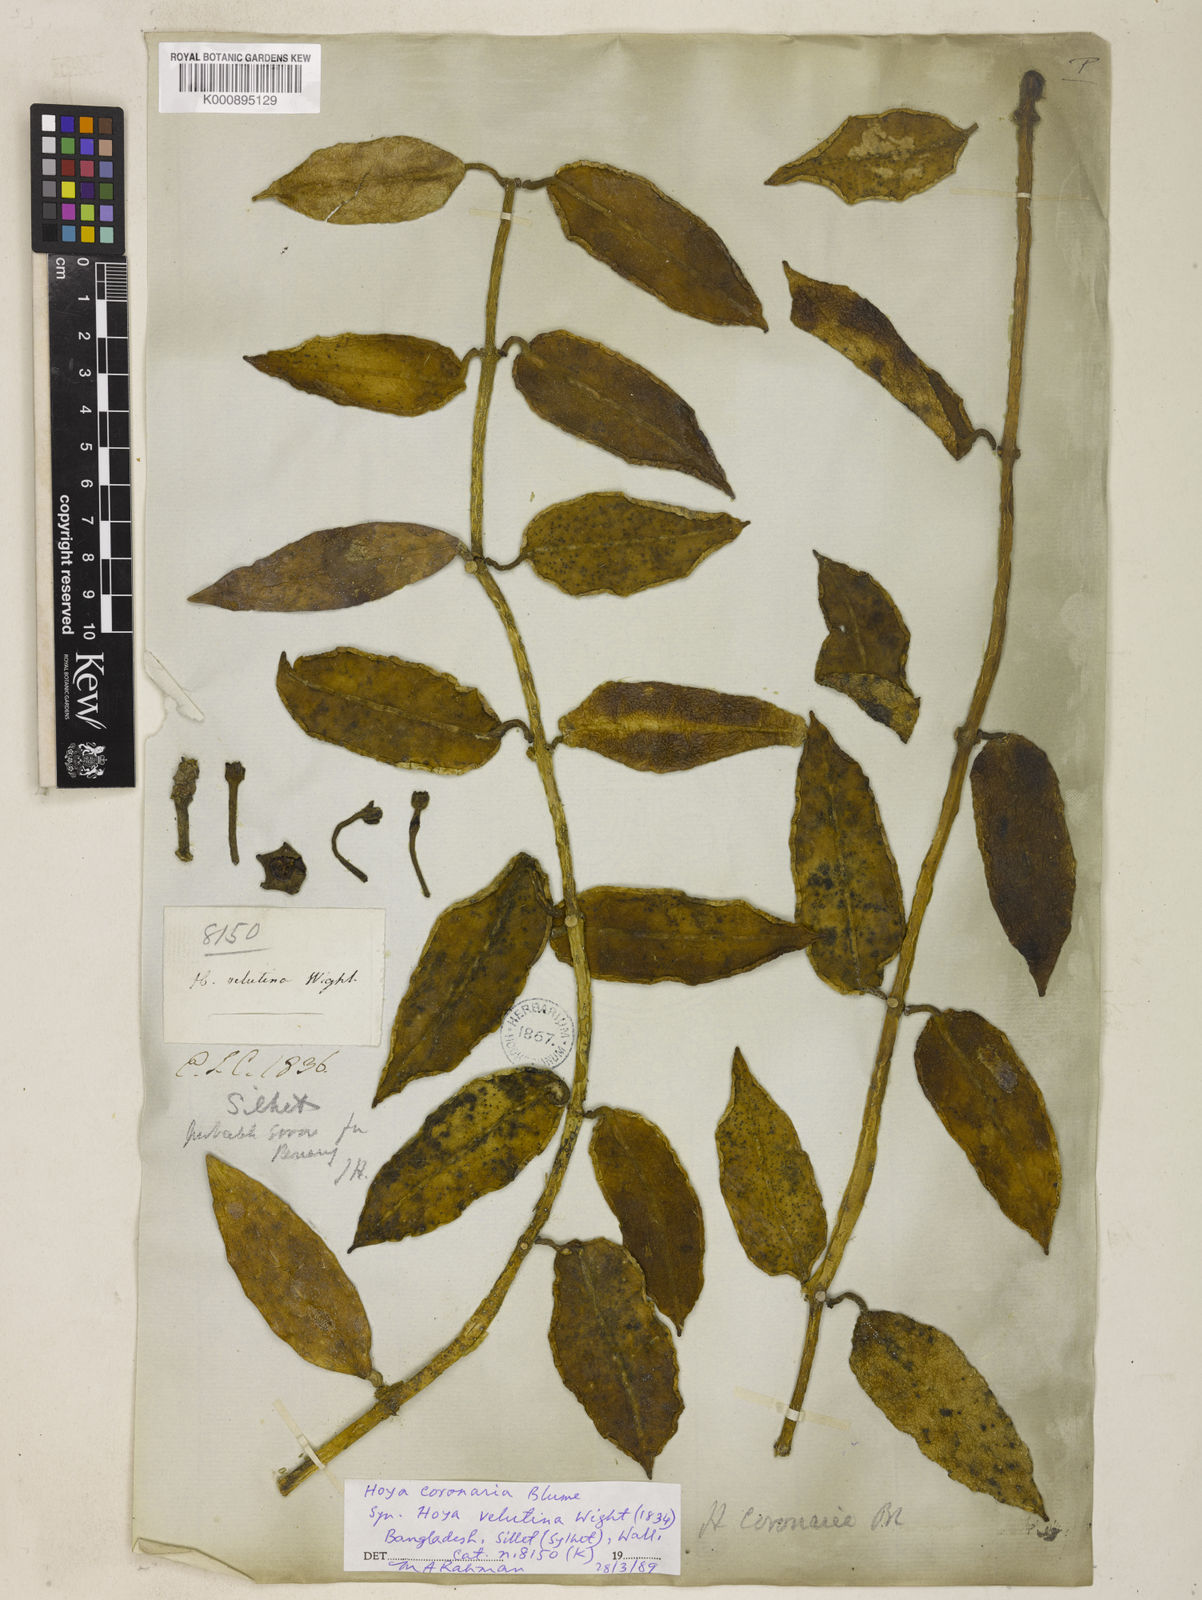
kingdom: Plantae
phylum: Tracheophyta
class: Magnoliopsida
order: Gentianales
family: Apocynaceae
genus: Eriostemma
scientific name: Eriostemma coronaria
